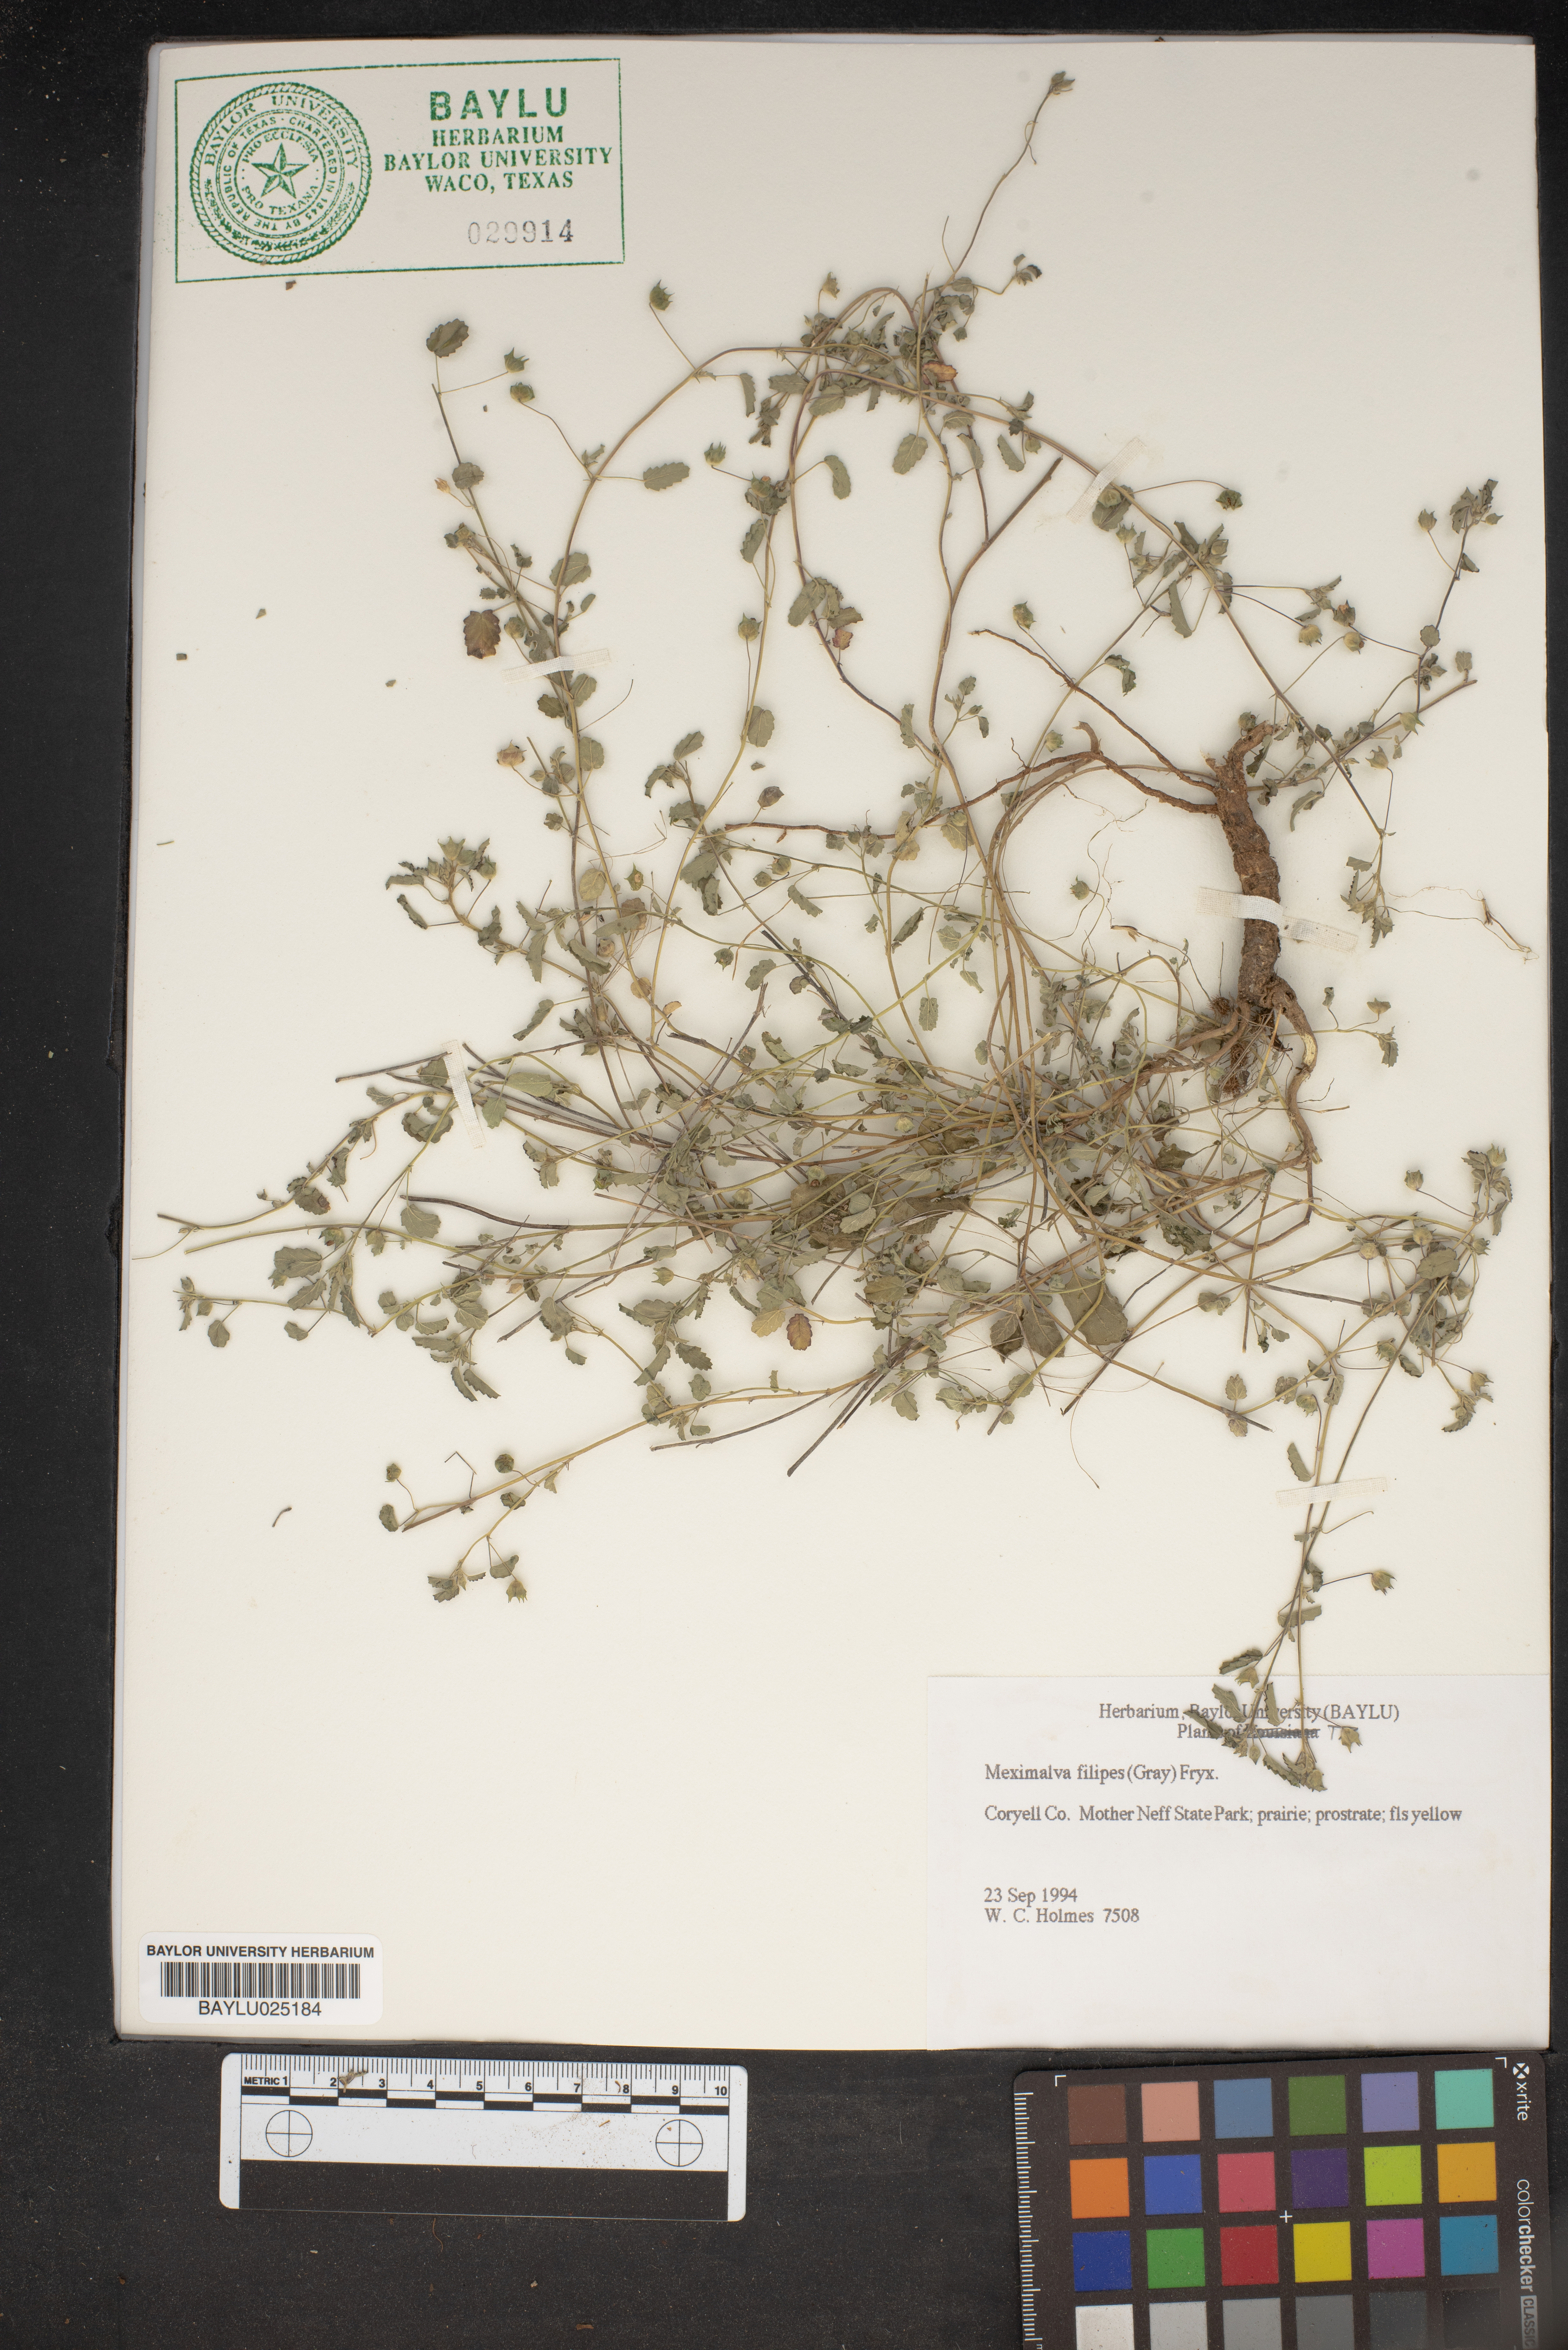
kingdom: Plantae
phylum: Tracheophyta
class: Magnoliopsida
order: Malvales
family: Malvaceae
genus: Meximalva
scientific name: Meximalva filipes
